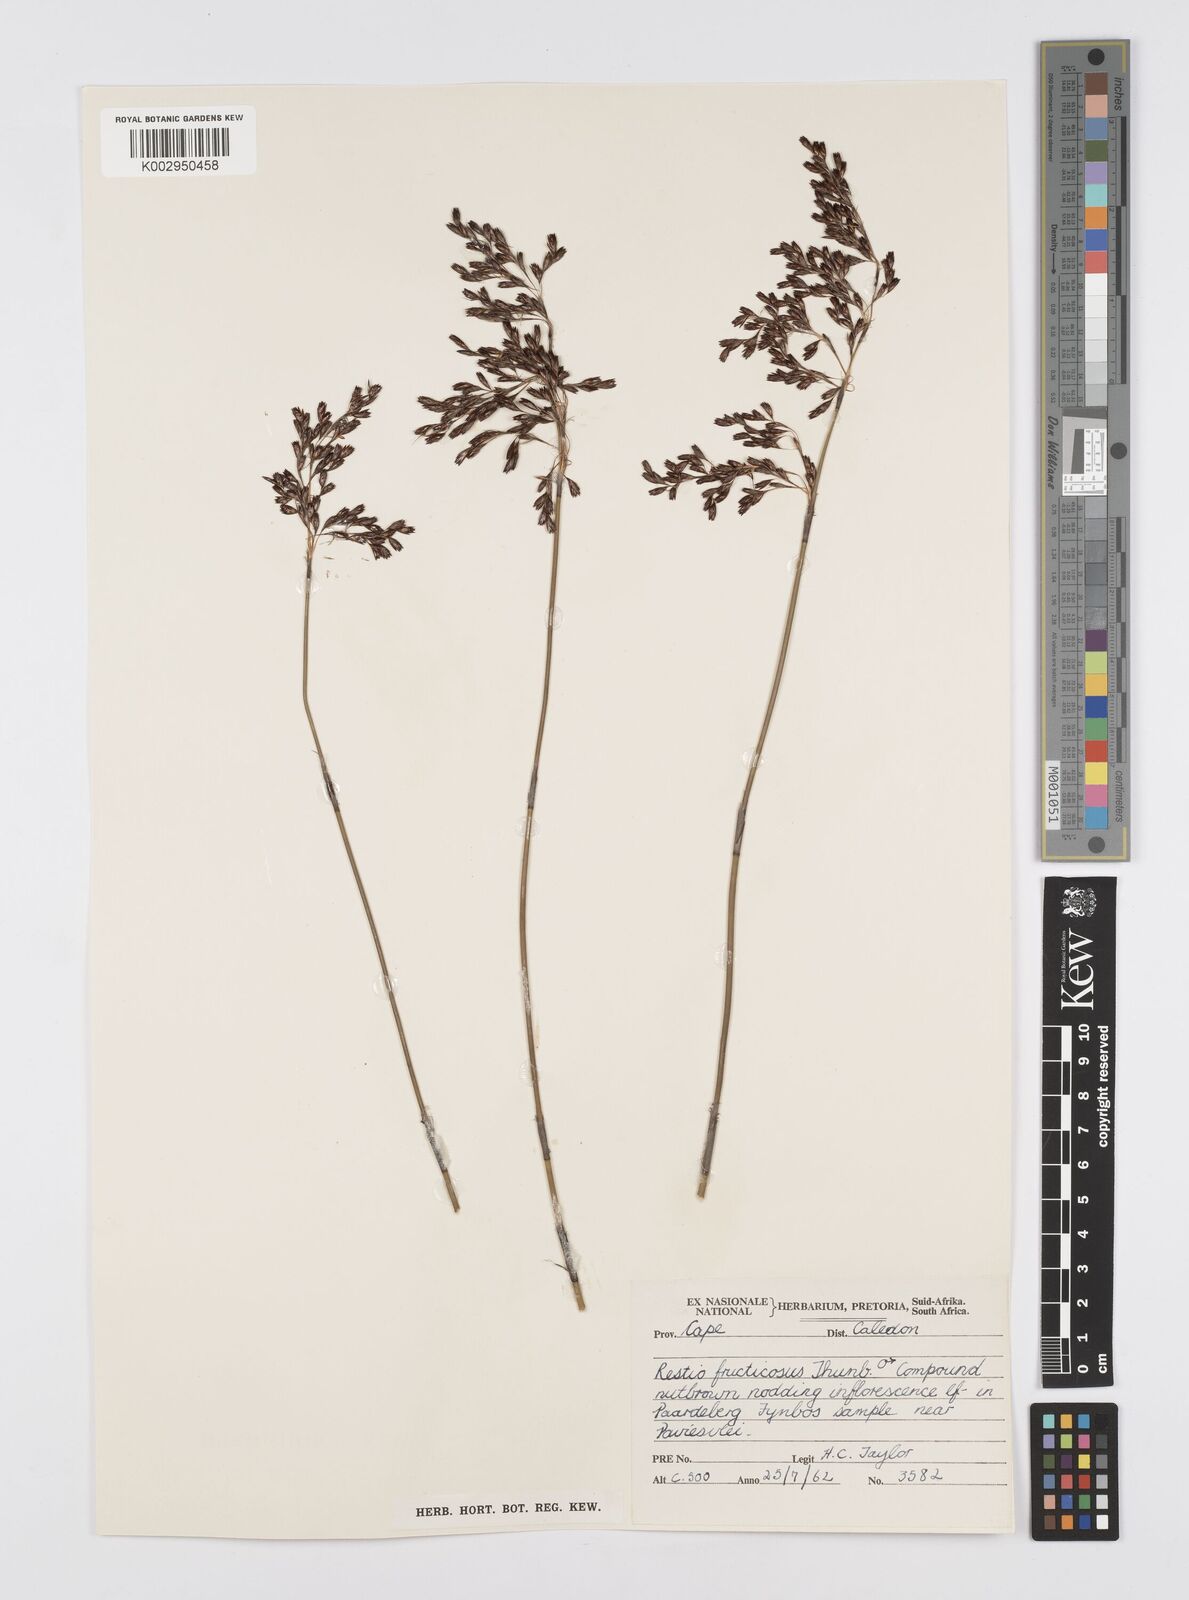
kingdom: Plantae
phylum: Tracheophyta
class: Liliopsida
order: Poales
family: Restionaceae
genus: Rhodocoma
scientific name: Rhodocoma fruticosa
